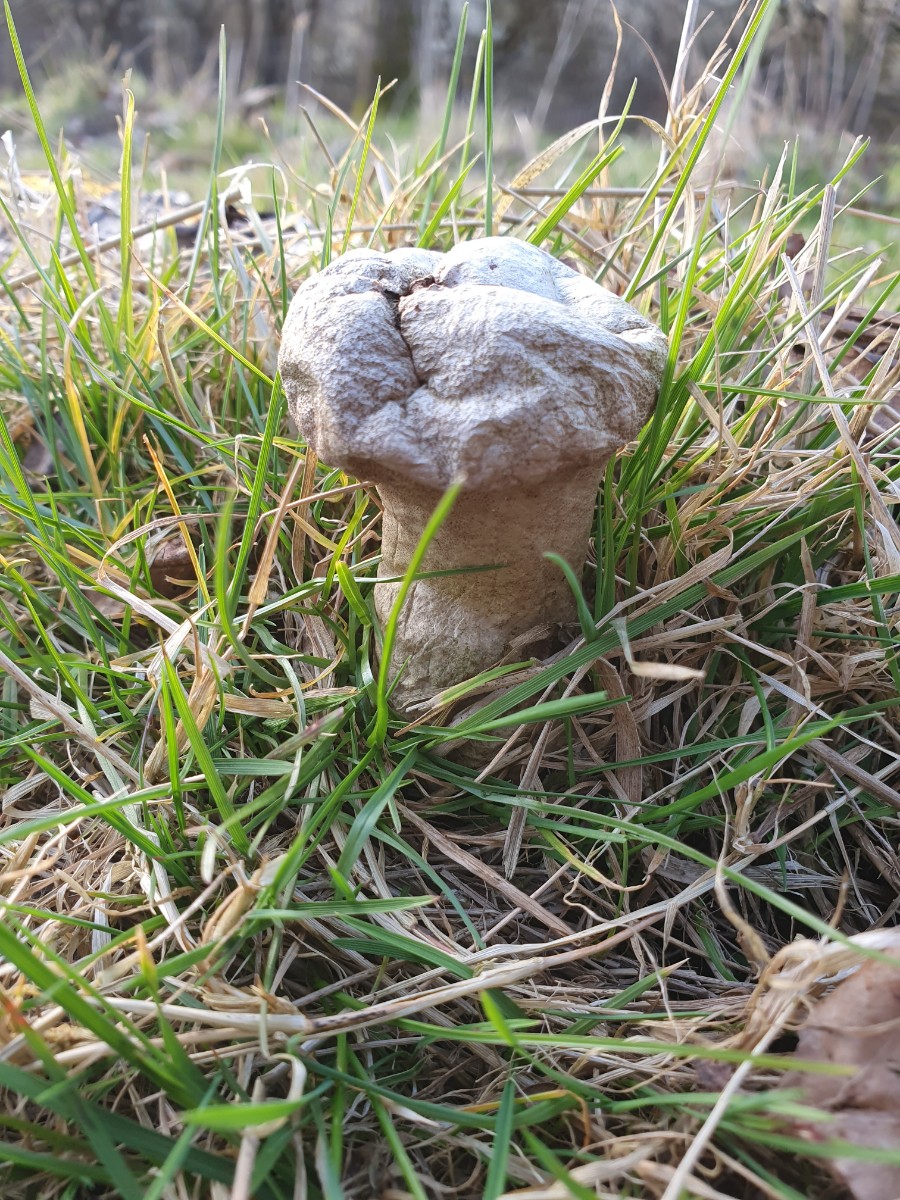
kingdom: Fungi
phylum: Basidiomycota
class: Agaricomycetes
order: Agaricales
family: Lycoperdaceae
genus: Lycoperdon
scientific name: Lycoperdon excipuliforme
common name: højstokket støvbold
